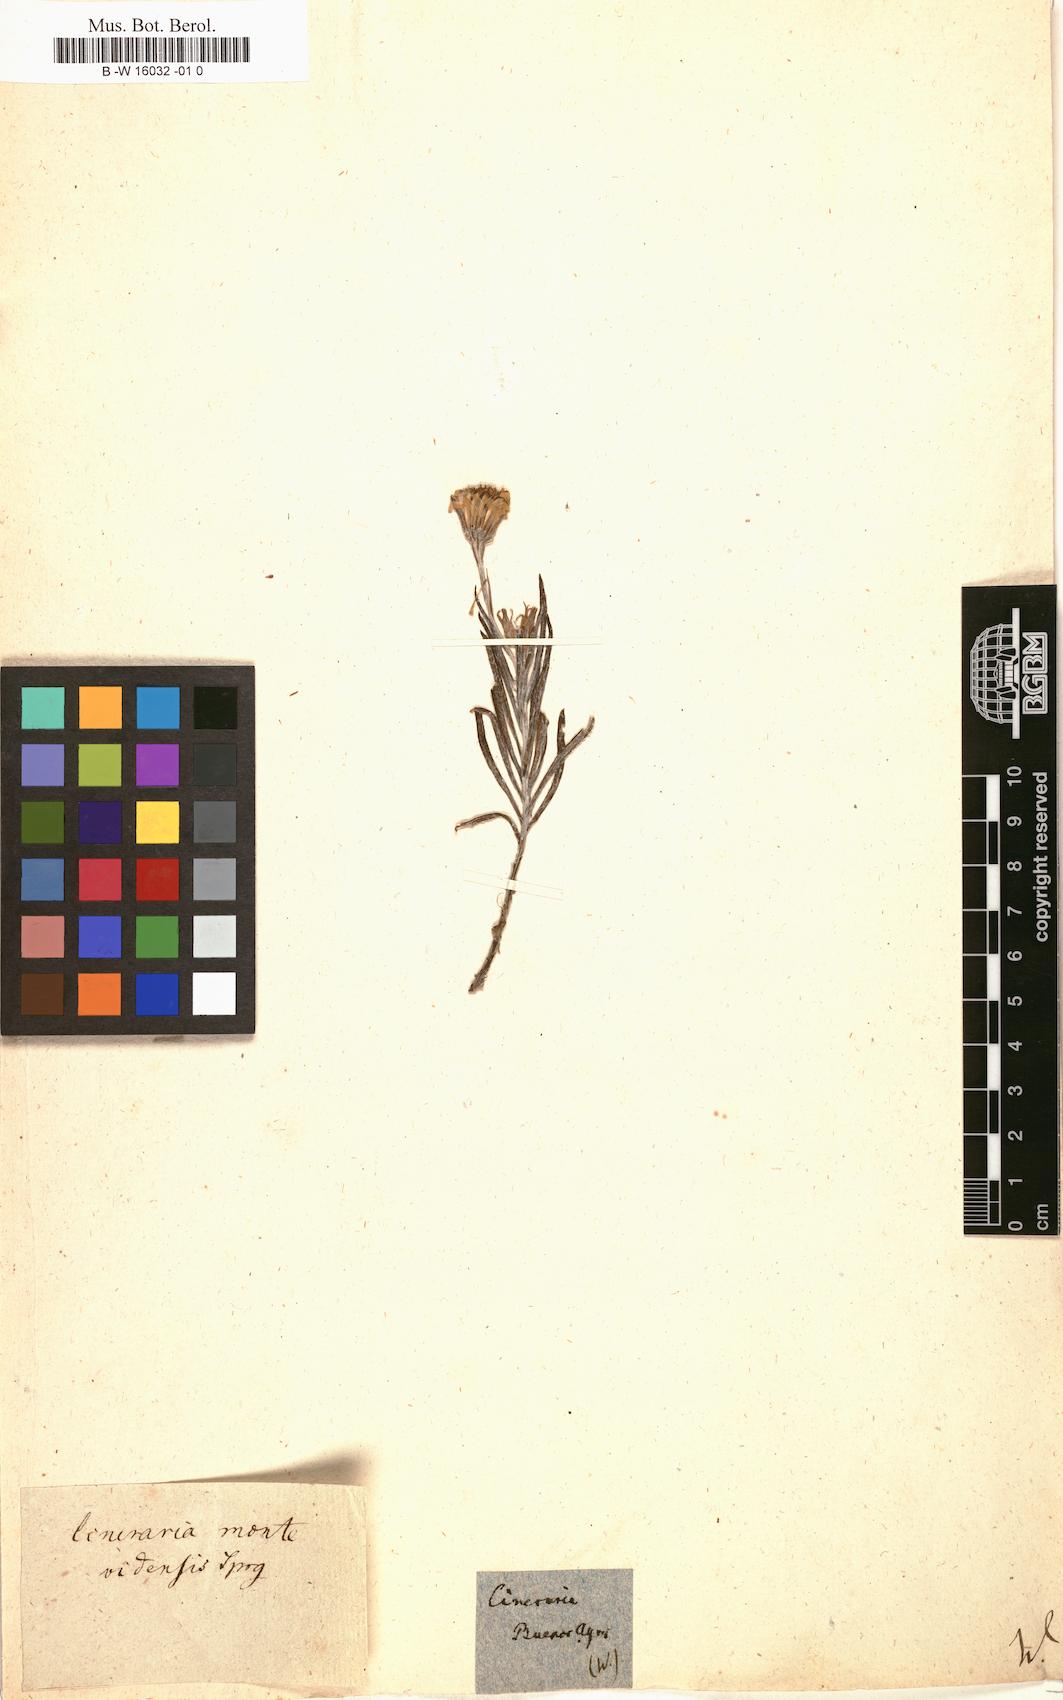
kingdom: Plantae
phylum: Tracheophyta
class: Magnoliopsida
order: Asterales
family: Asteraceae
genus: Senecio
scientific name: Senecio montevidensis
